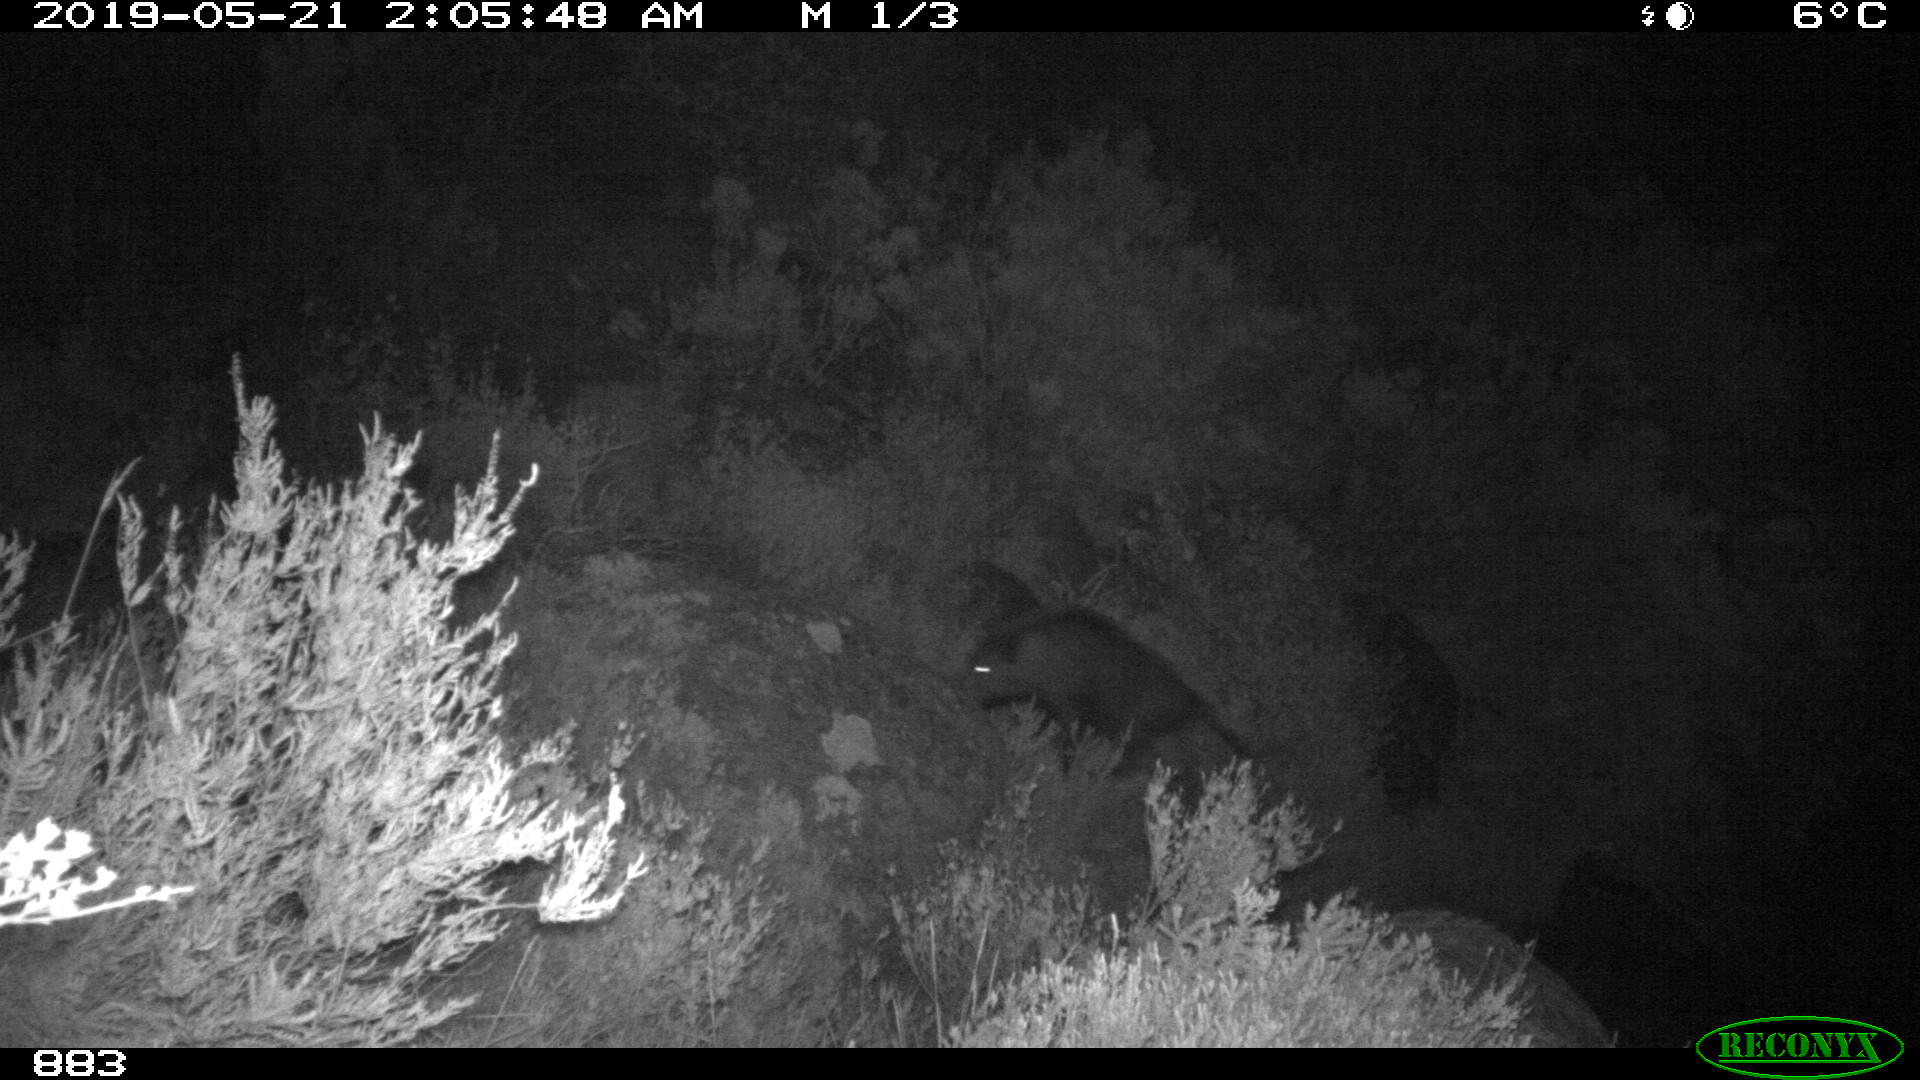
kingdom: Animalia
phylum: Chordata
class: Mammalia
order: Artiodactyla
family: Suidae
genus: Sus
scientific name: Sus scrofa
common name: Wild boar
